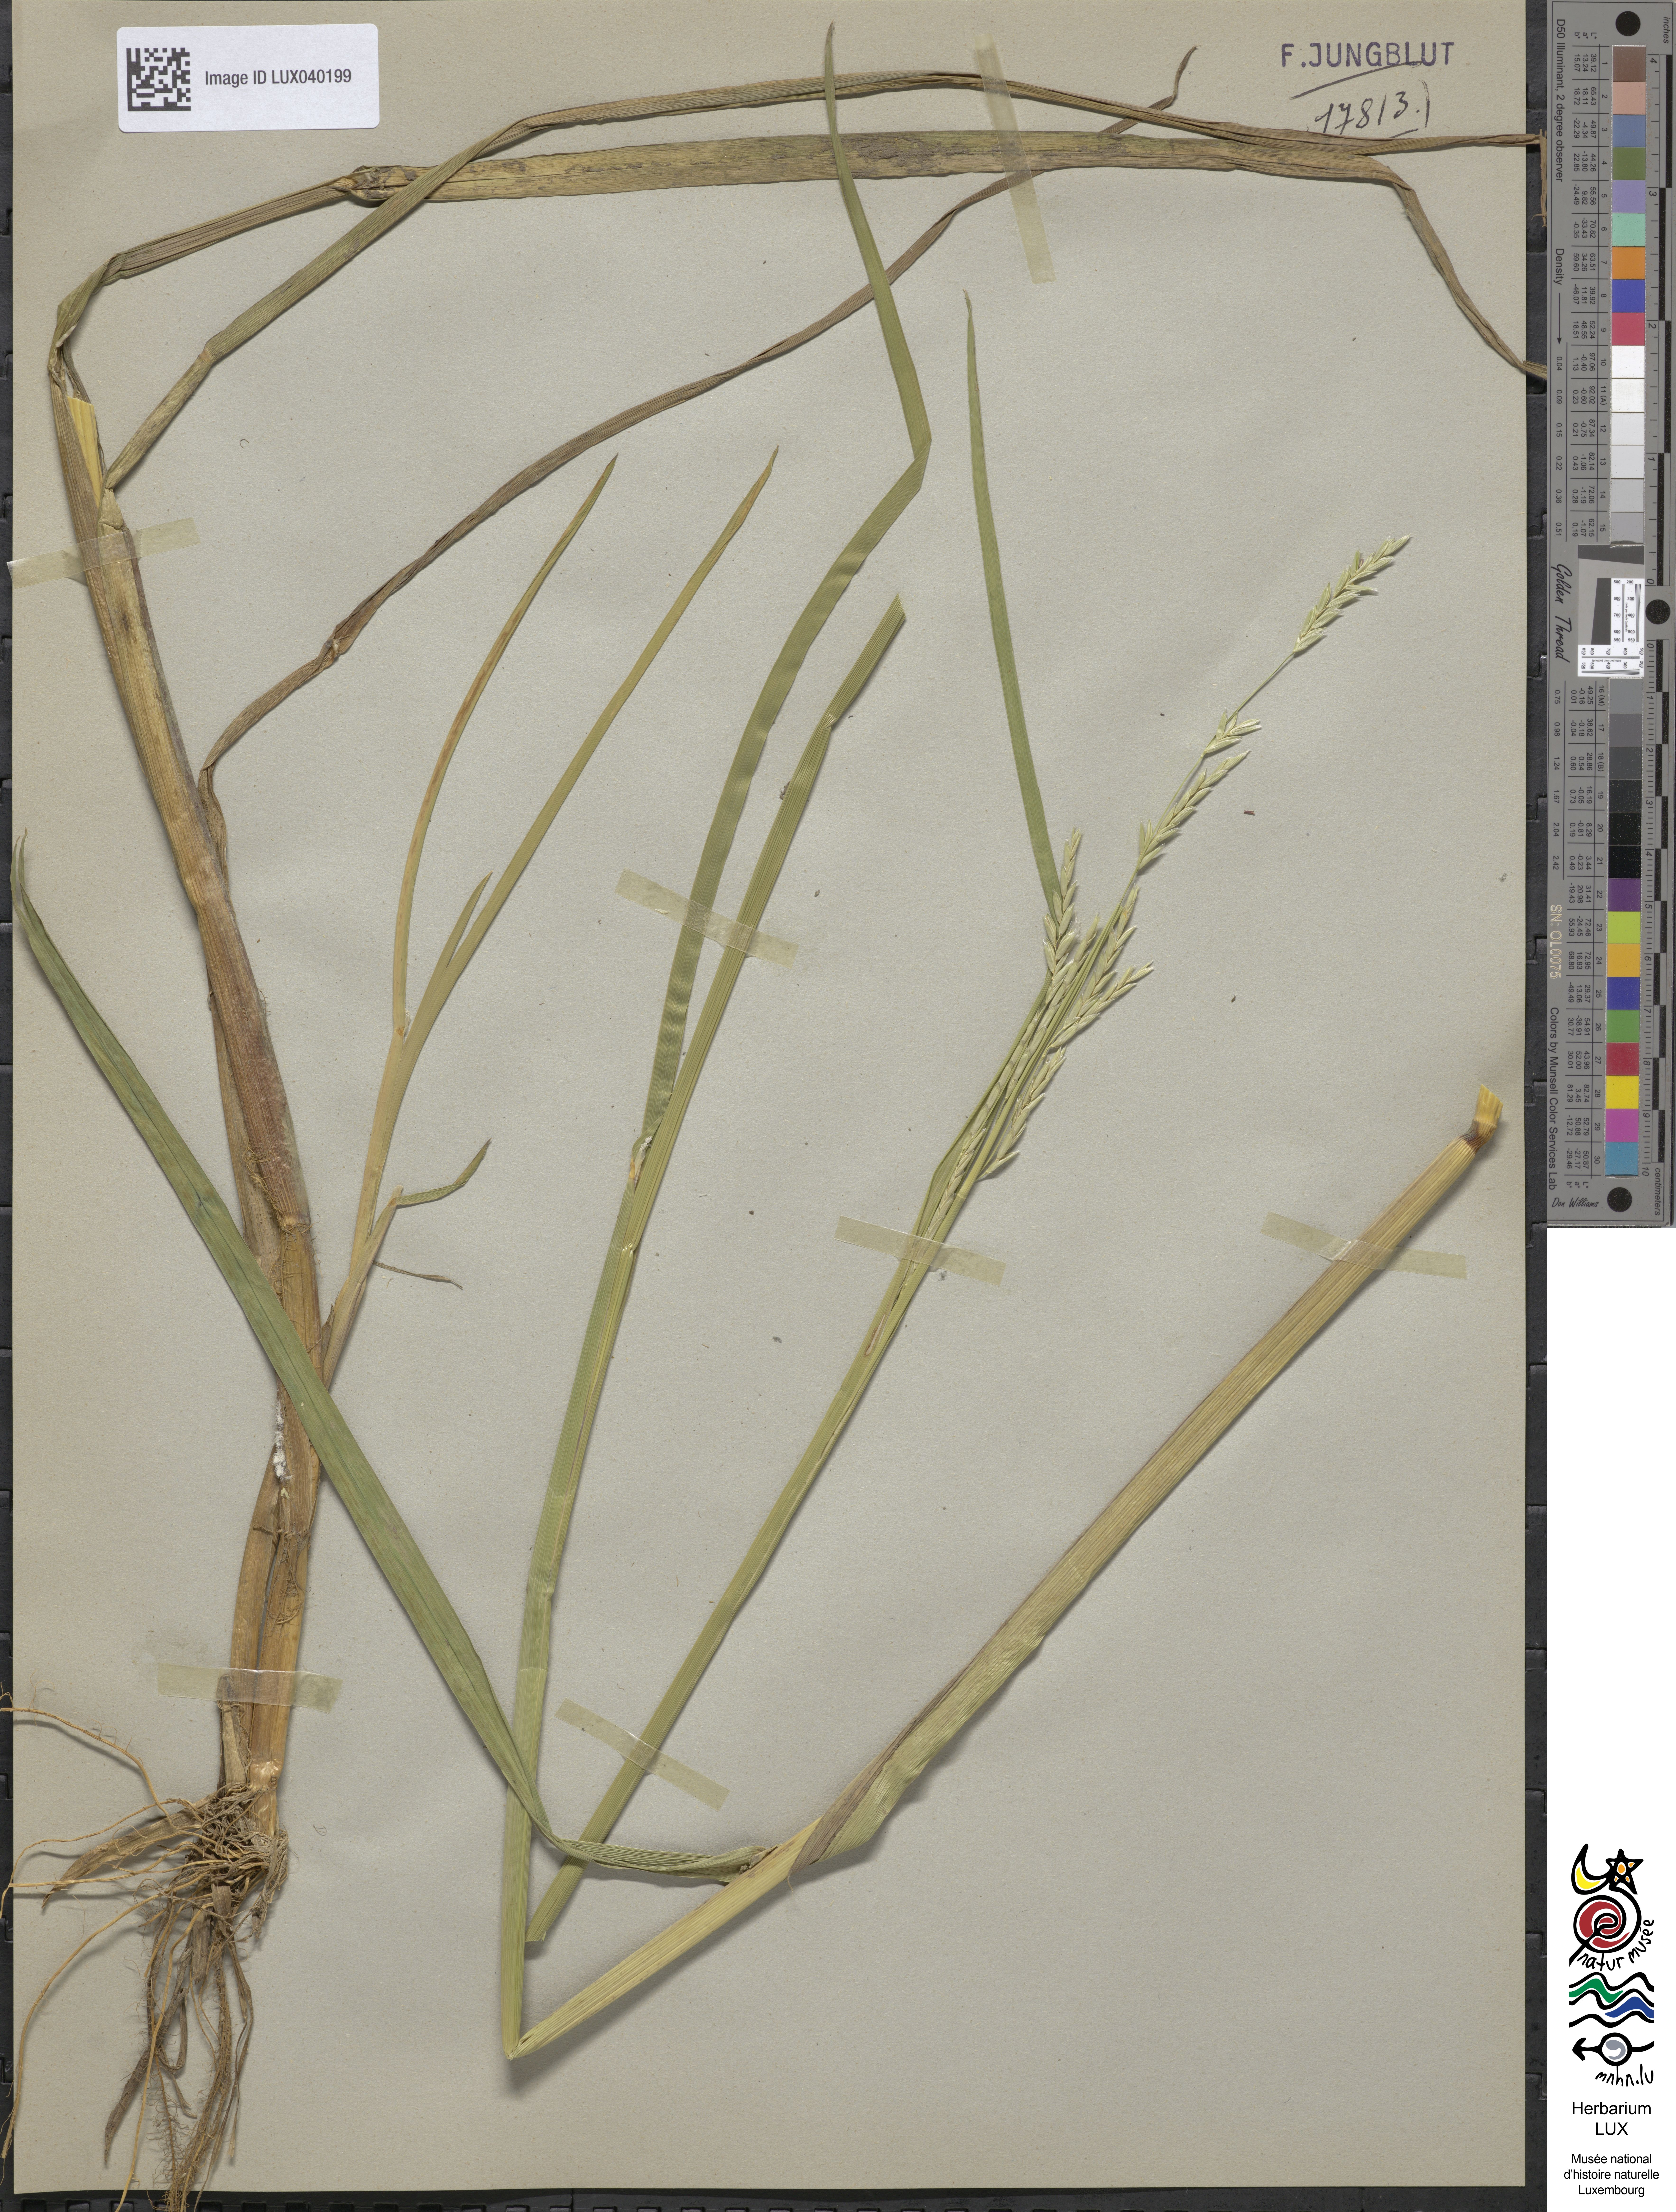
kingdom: Plantae
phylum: Tracheophyta
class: Liliopsida
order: Poales
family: Poaceae
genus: Glyceria
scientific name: Glyceria fluitans
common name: Floating sweet-grass
